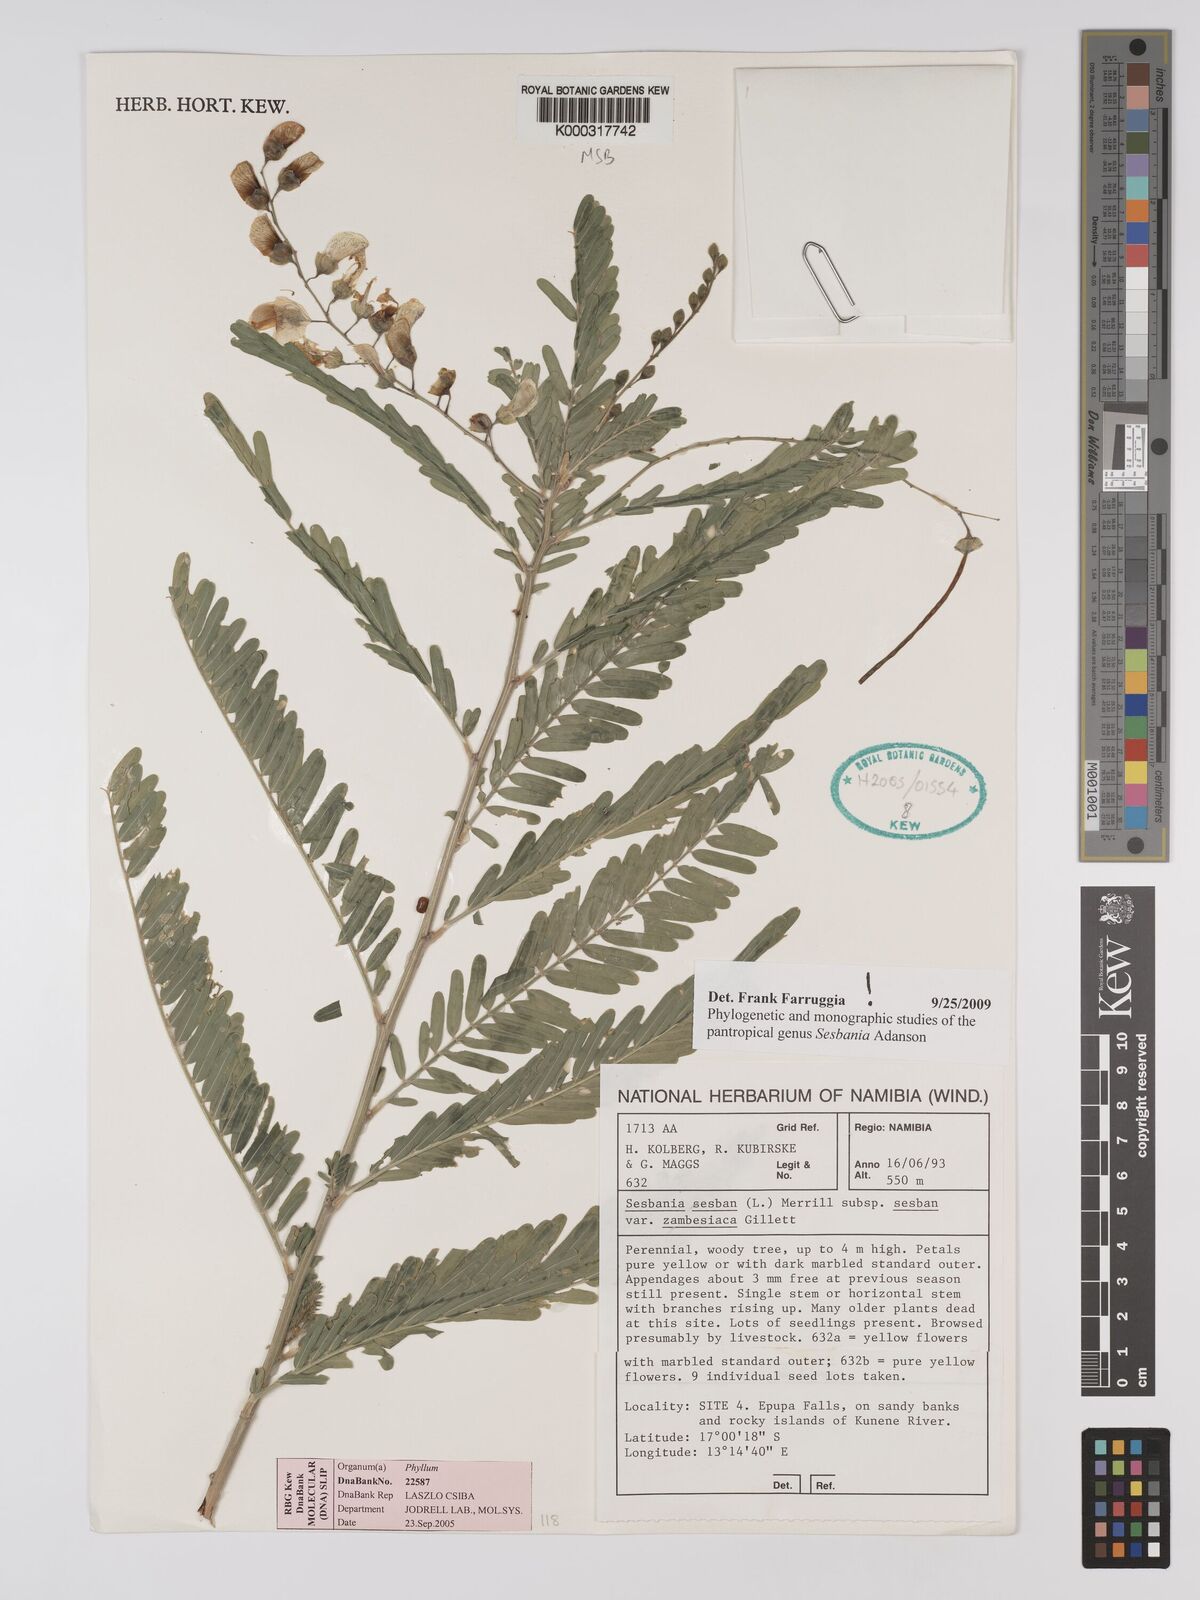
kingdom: Plantae
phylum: Tracheophyta
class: Magnoliopsida
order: Fabales
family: Fabaceae
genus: Sesbania
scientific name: Sesbania sesban
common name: Egyptian sesban
